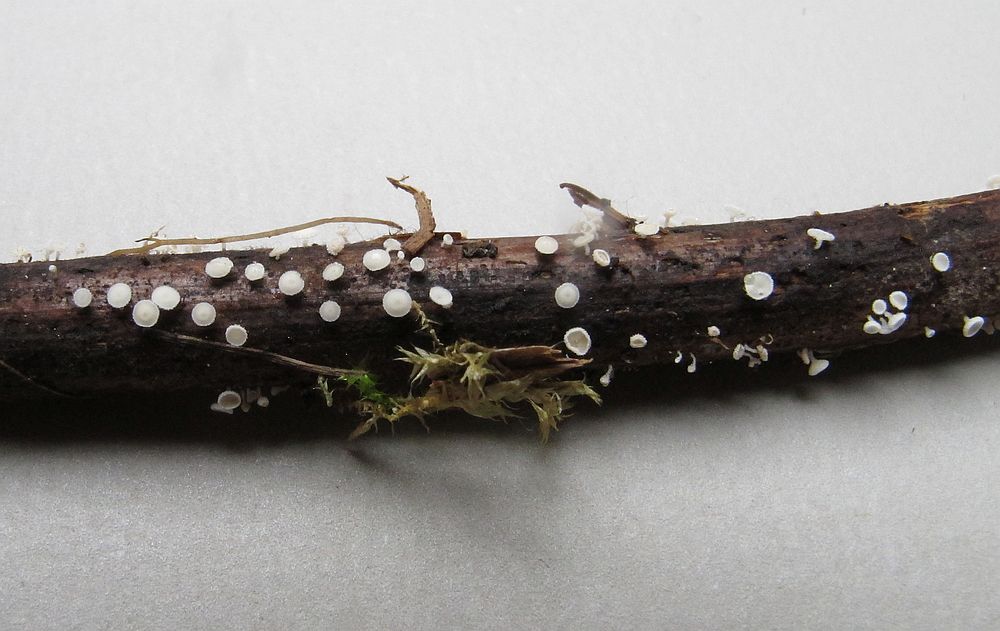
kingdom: Fungi
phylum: Ascomycota
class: Leotiomycetes
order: Helotiales
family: Lachnaceae
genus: Lachnum
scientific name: Lachnum subvirgineum
